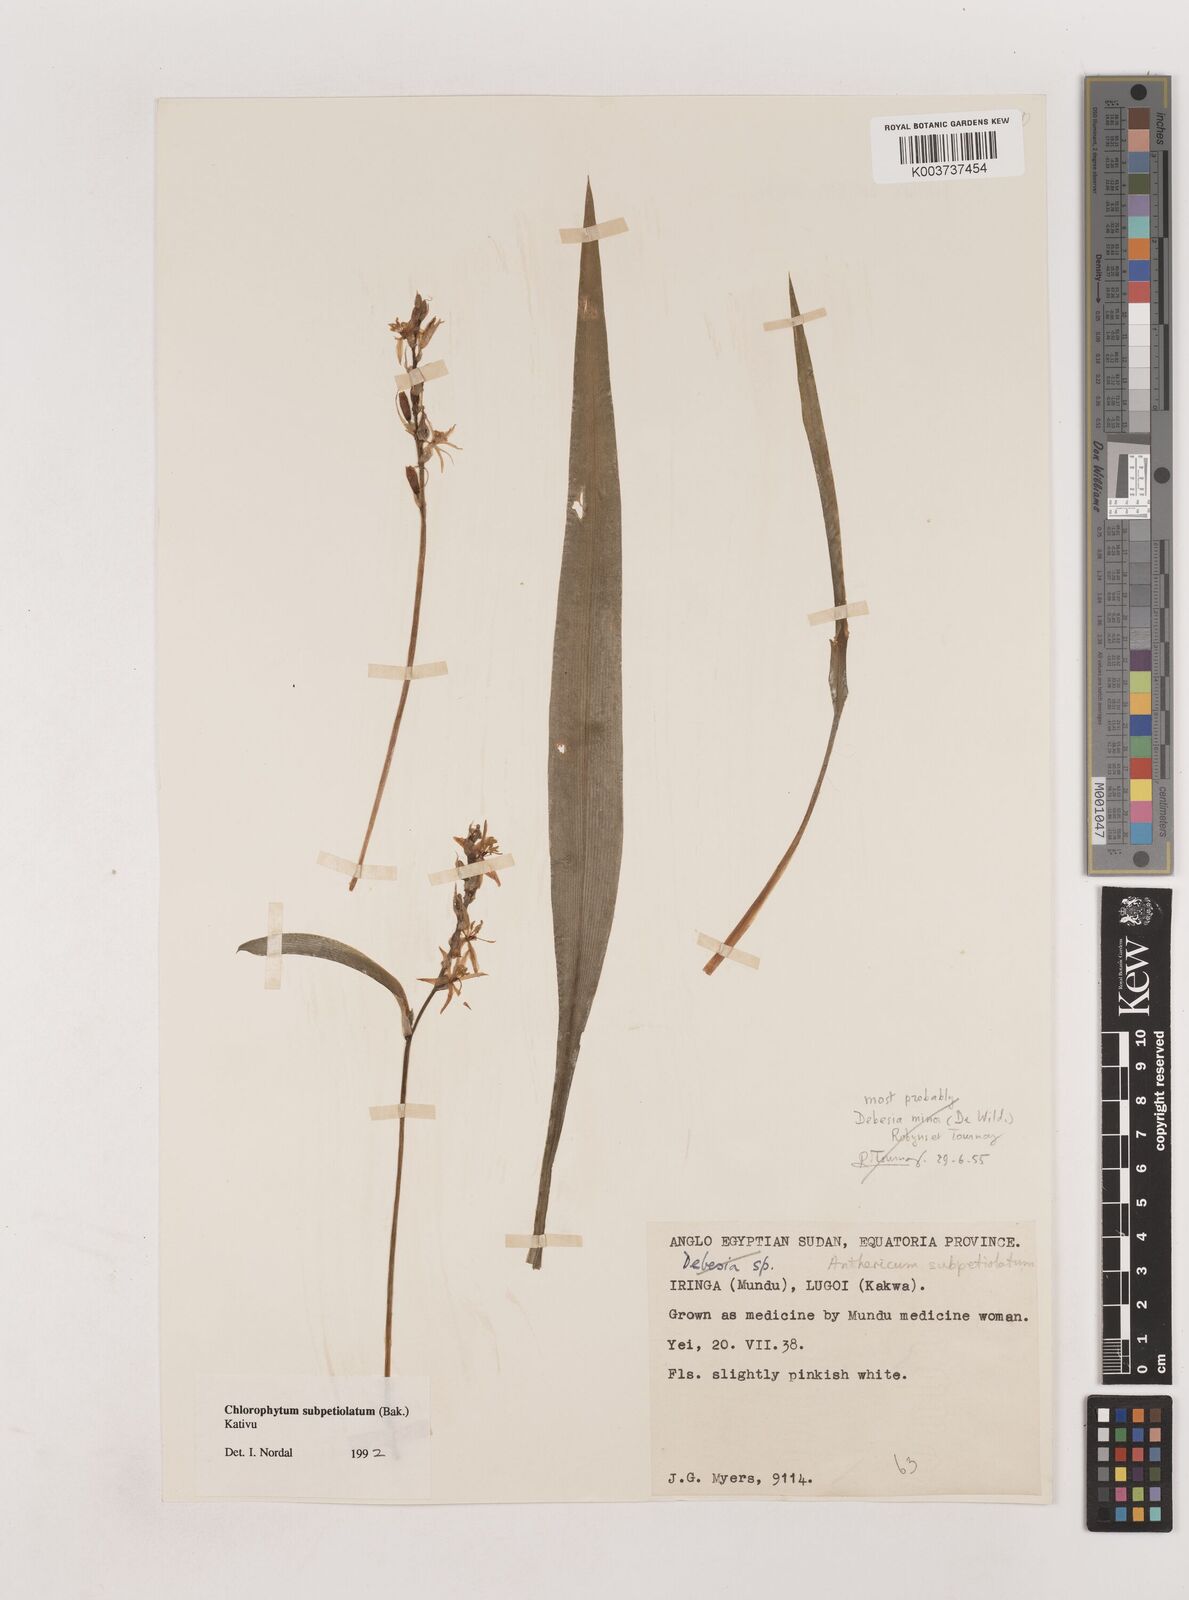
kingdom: Plantae
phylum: Tracheophyta
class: Liliopsida
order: Asparagales
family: Asparagaceae
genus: Chlorophytum
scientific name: Chlorophytum subpetiolatum
